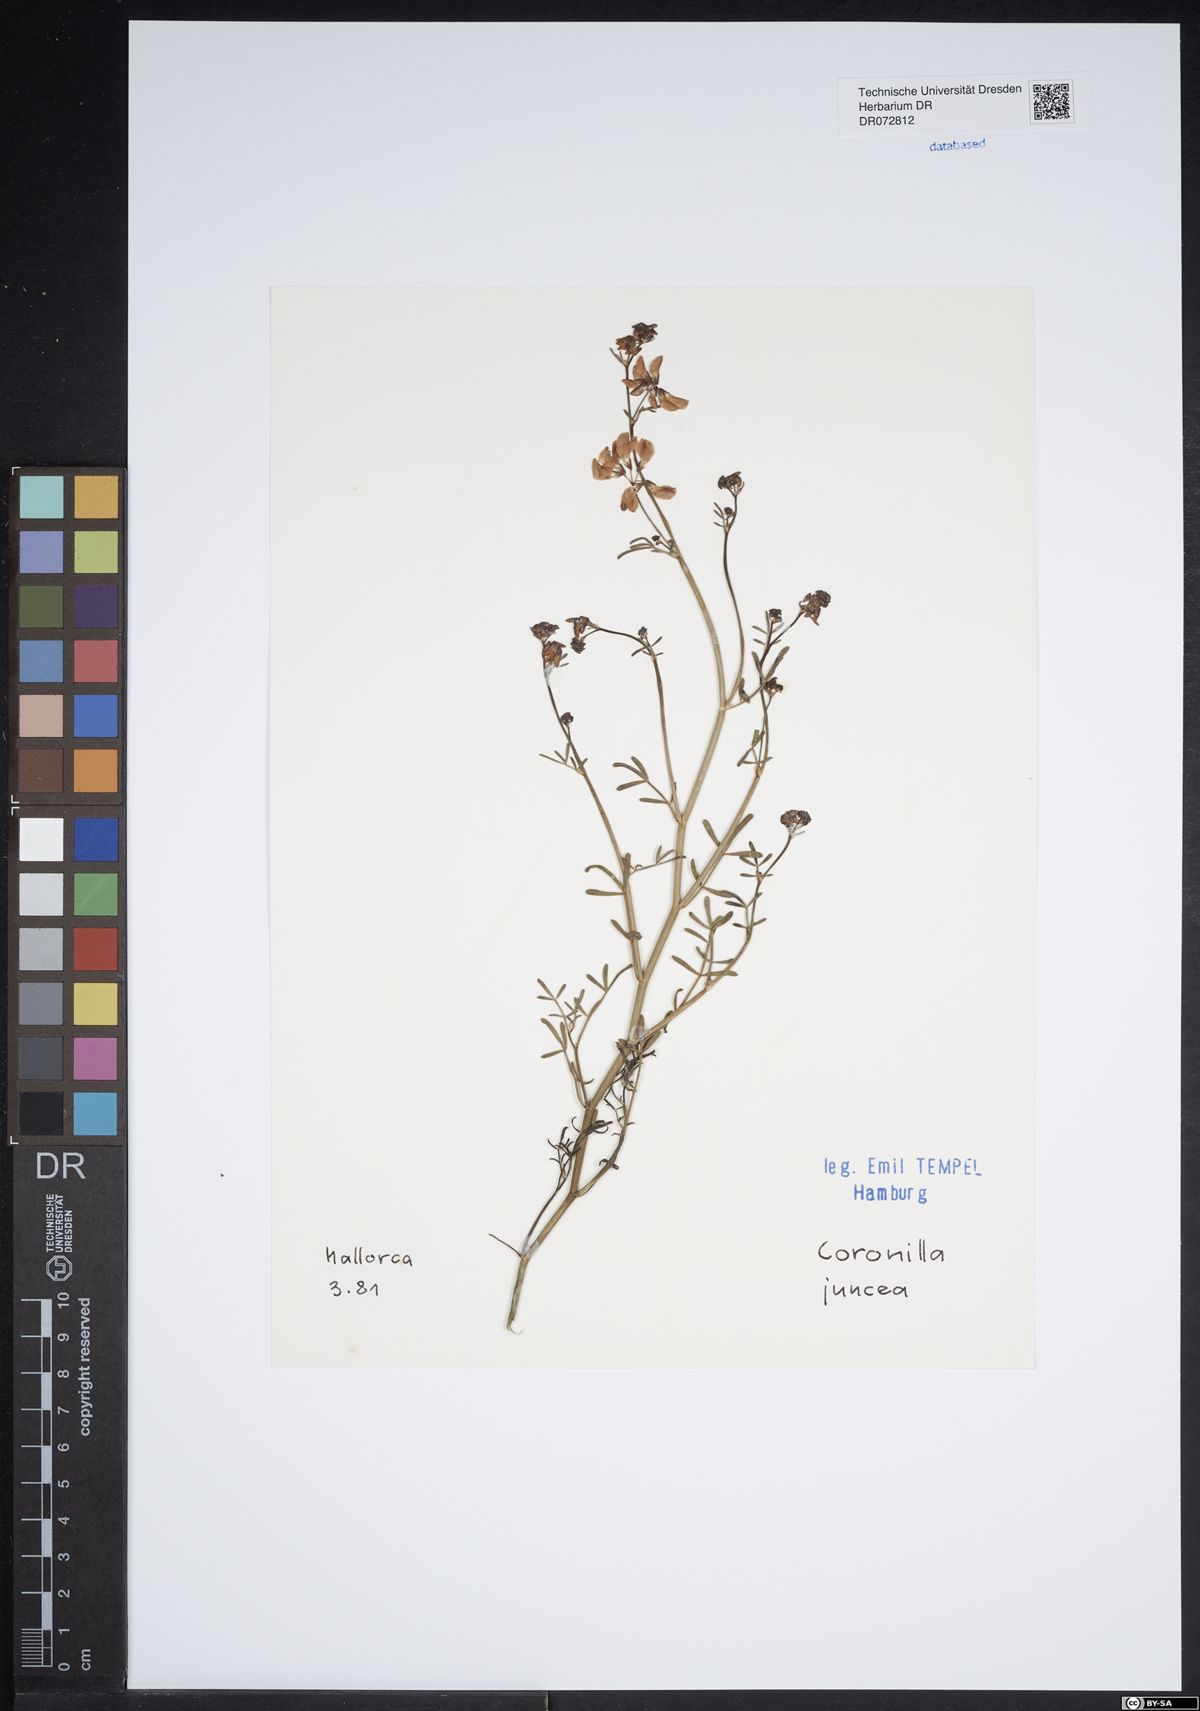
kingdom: Plantae
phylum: Tracheophyta
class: Magnoliopsida
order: Fabales
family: Fabaceae
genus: Coronilla
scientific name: Coronilla juncea
